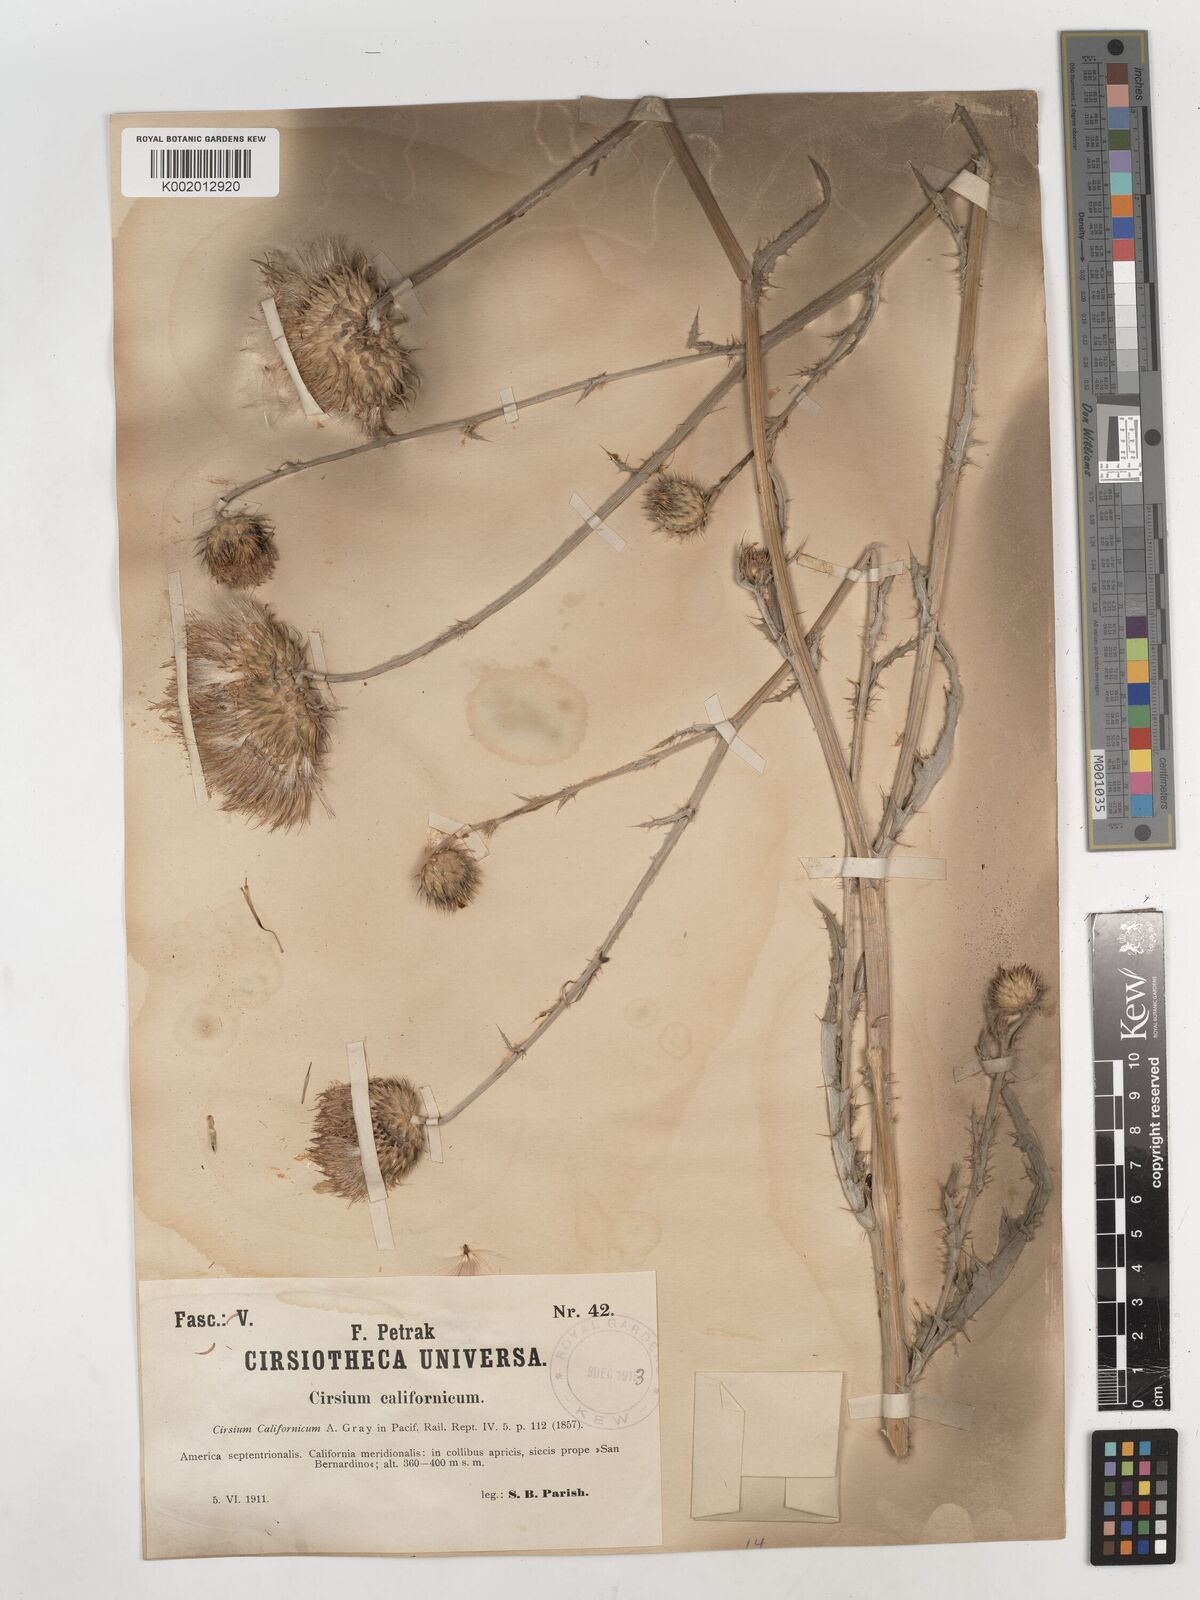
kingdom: Plantae
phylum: Tracheophyta
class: Magnoliopsida
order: Asterales
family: Asteraceae
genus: Cirsium
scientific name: Cirsium occidentale
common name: Western thistle
